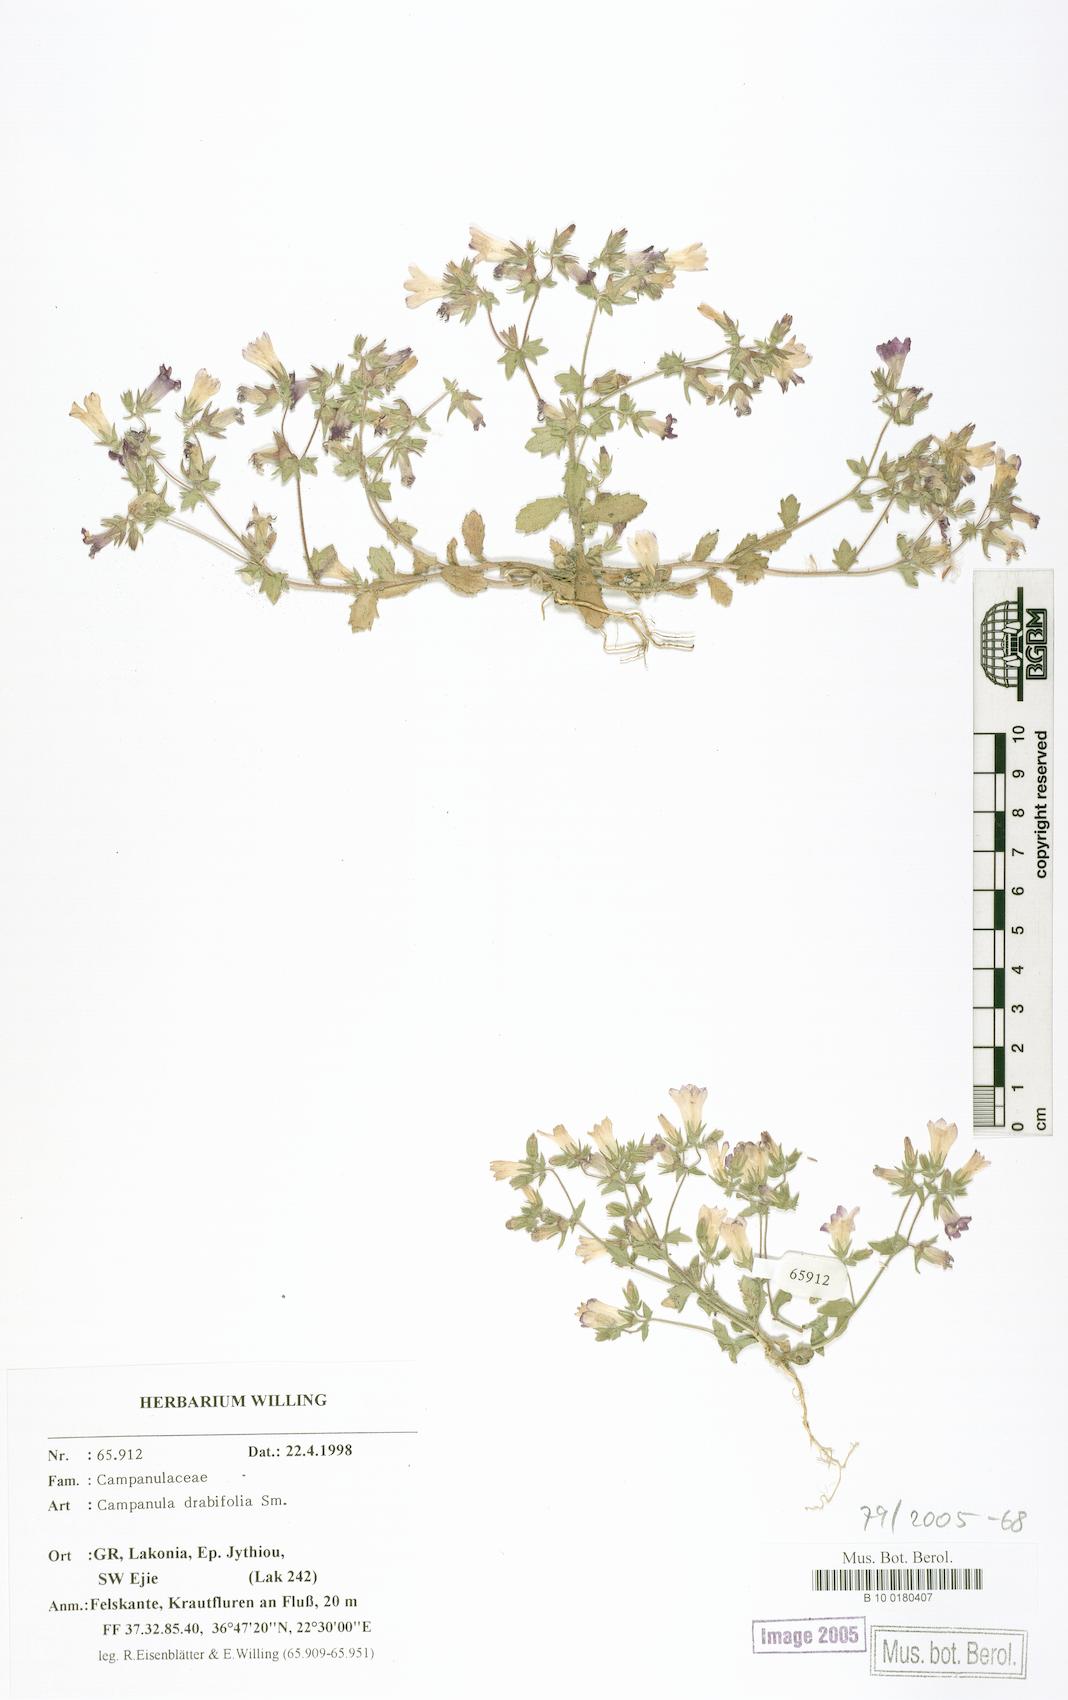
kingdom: Plantae
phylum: Tracheophyta
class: Magnoliopsida
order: Asterales
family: Campanulaceae
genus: Campanula
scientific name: Campanula drabifolia
